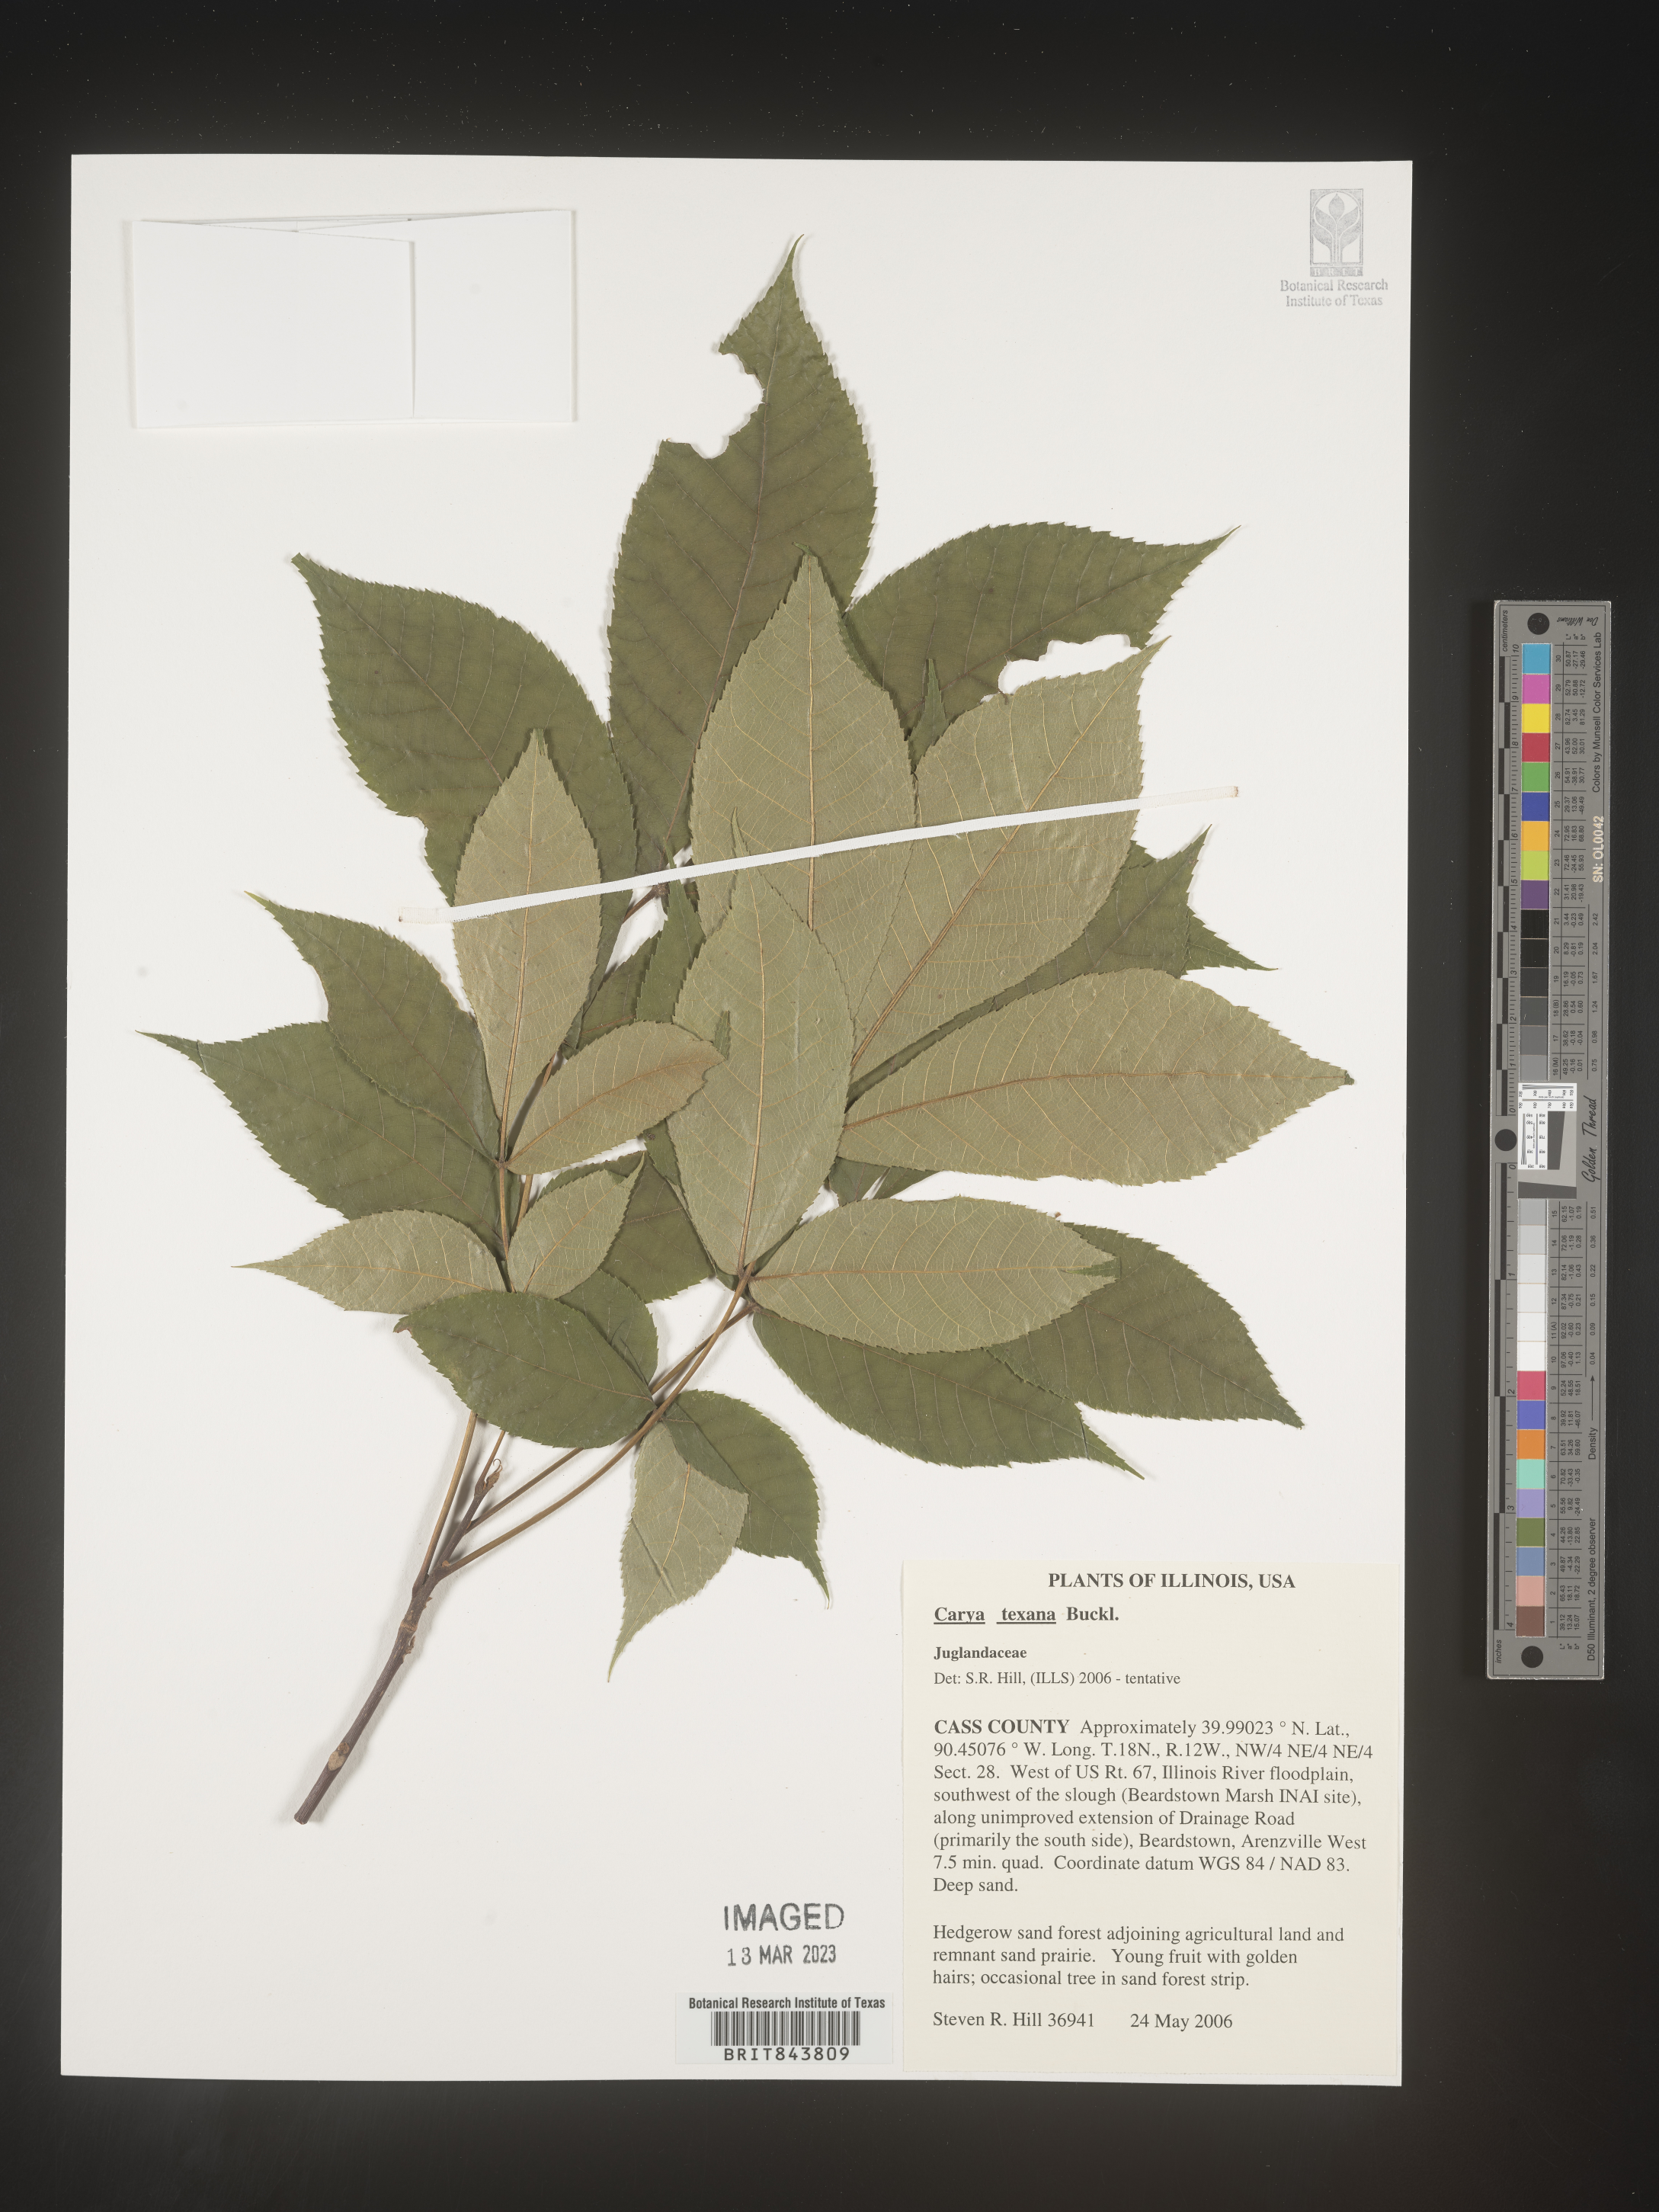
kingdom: Plantae
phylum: Tracheophyta
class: Magnoliopsida
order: Fagales
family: Juglandaceae
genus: Carya
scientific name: Carya texana
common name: Black hickory
